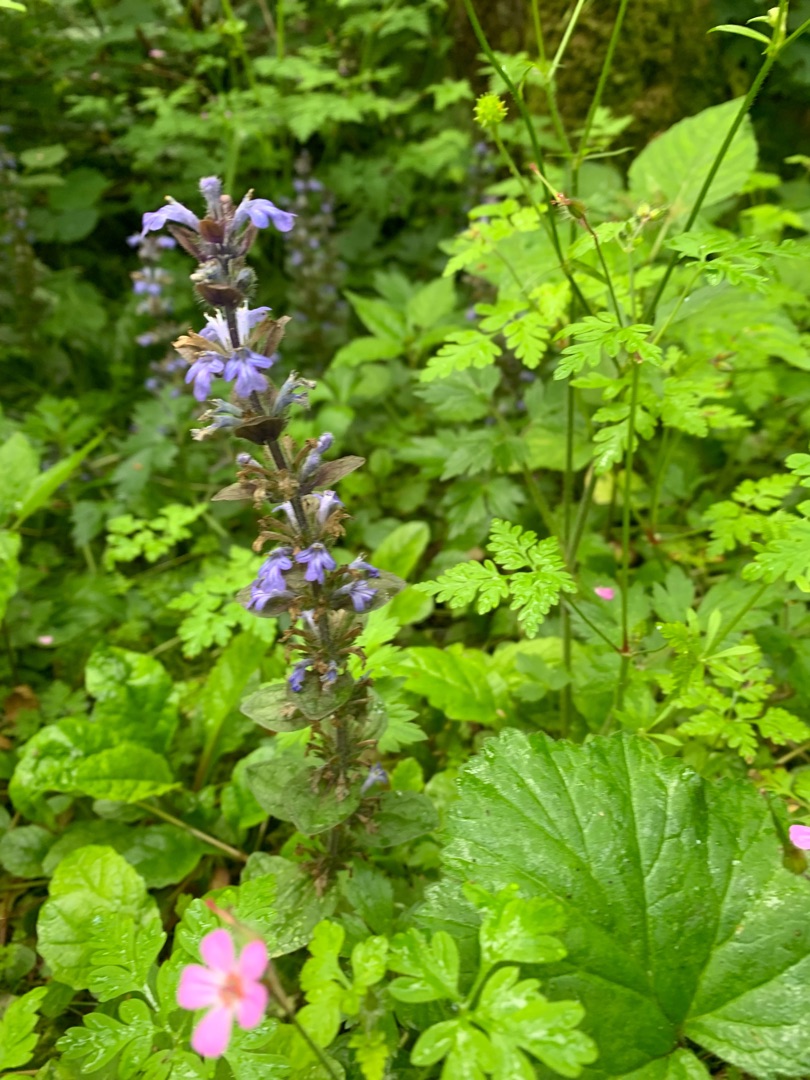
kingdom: Plantae
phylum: Tracheophyta
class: Magnoliopsida
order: Lamiales
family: Lamiaceae
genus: Ajuga
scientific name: Ajuga reptans
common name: Krybende læbeløs
